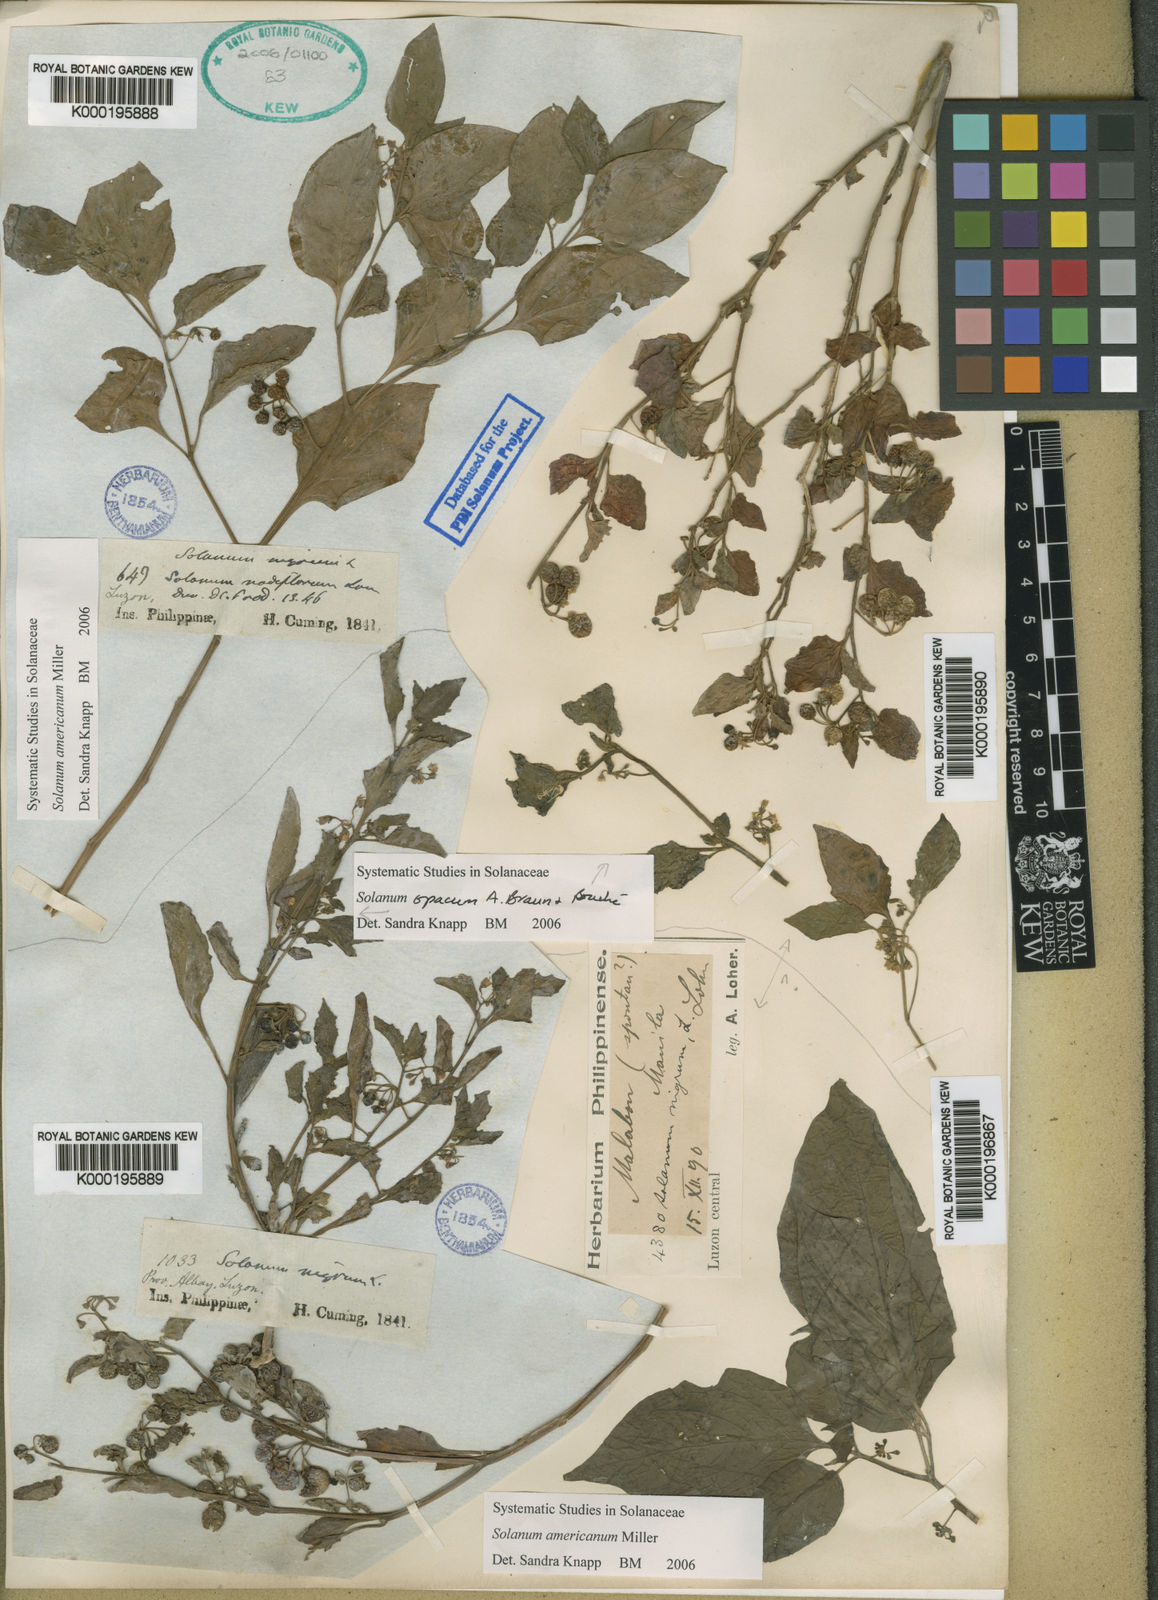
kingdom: Plantae
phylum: Tracheophyta
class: Magnoliopsida
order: Solanales
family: Solanaceae
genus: Solanum
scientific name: Solanum americanum
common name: American black nightshade
